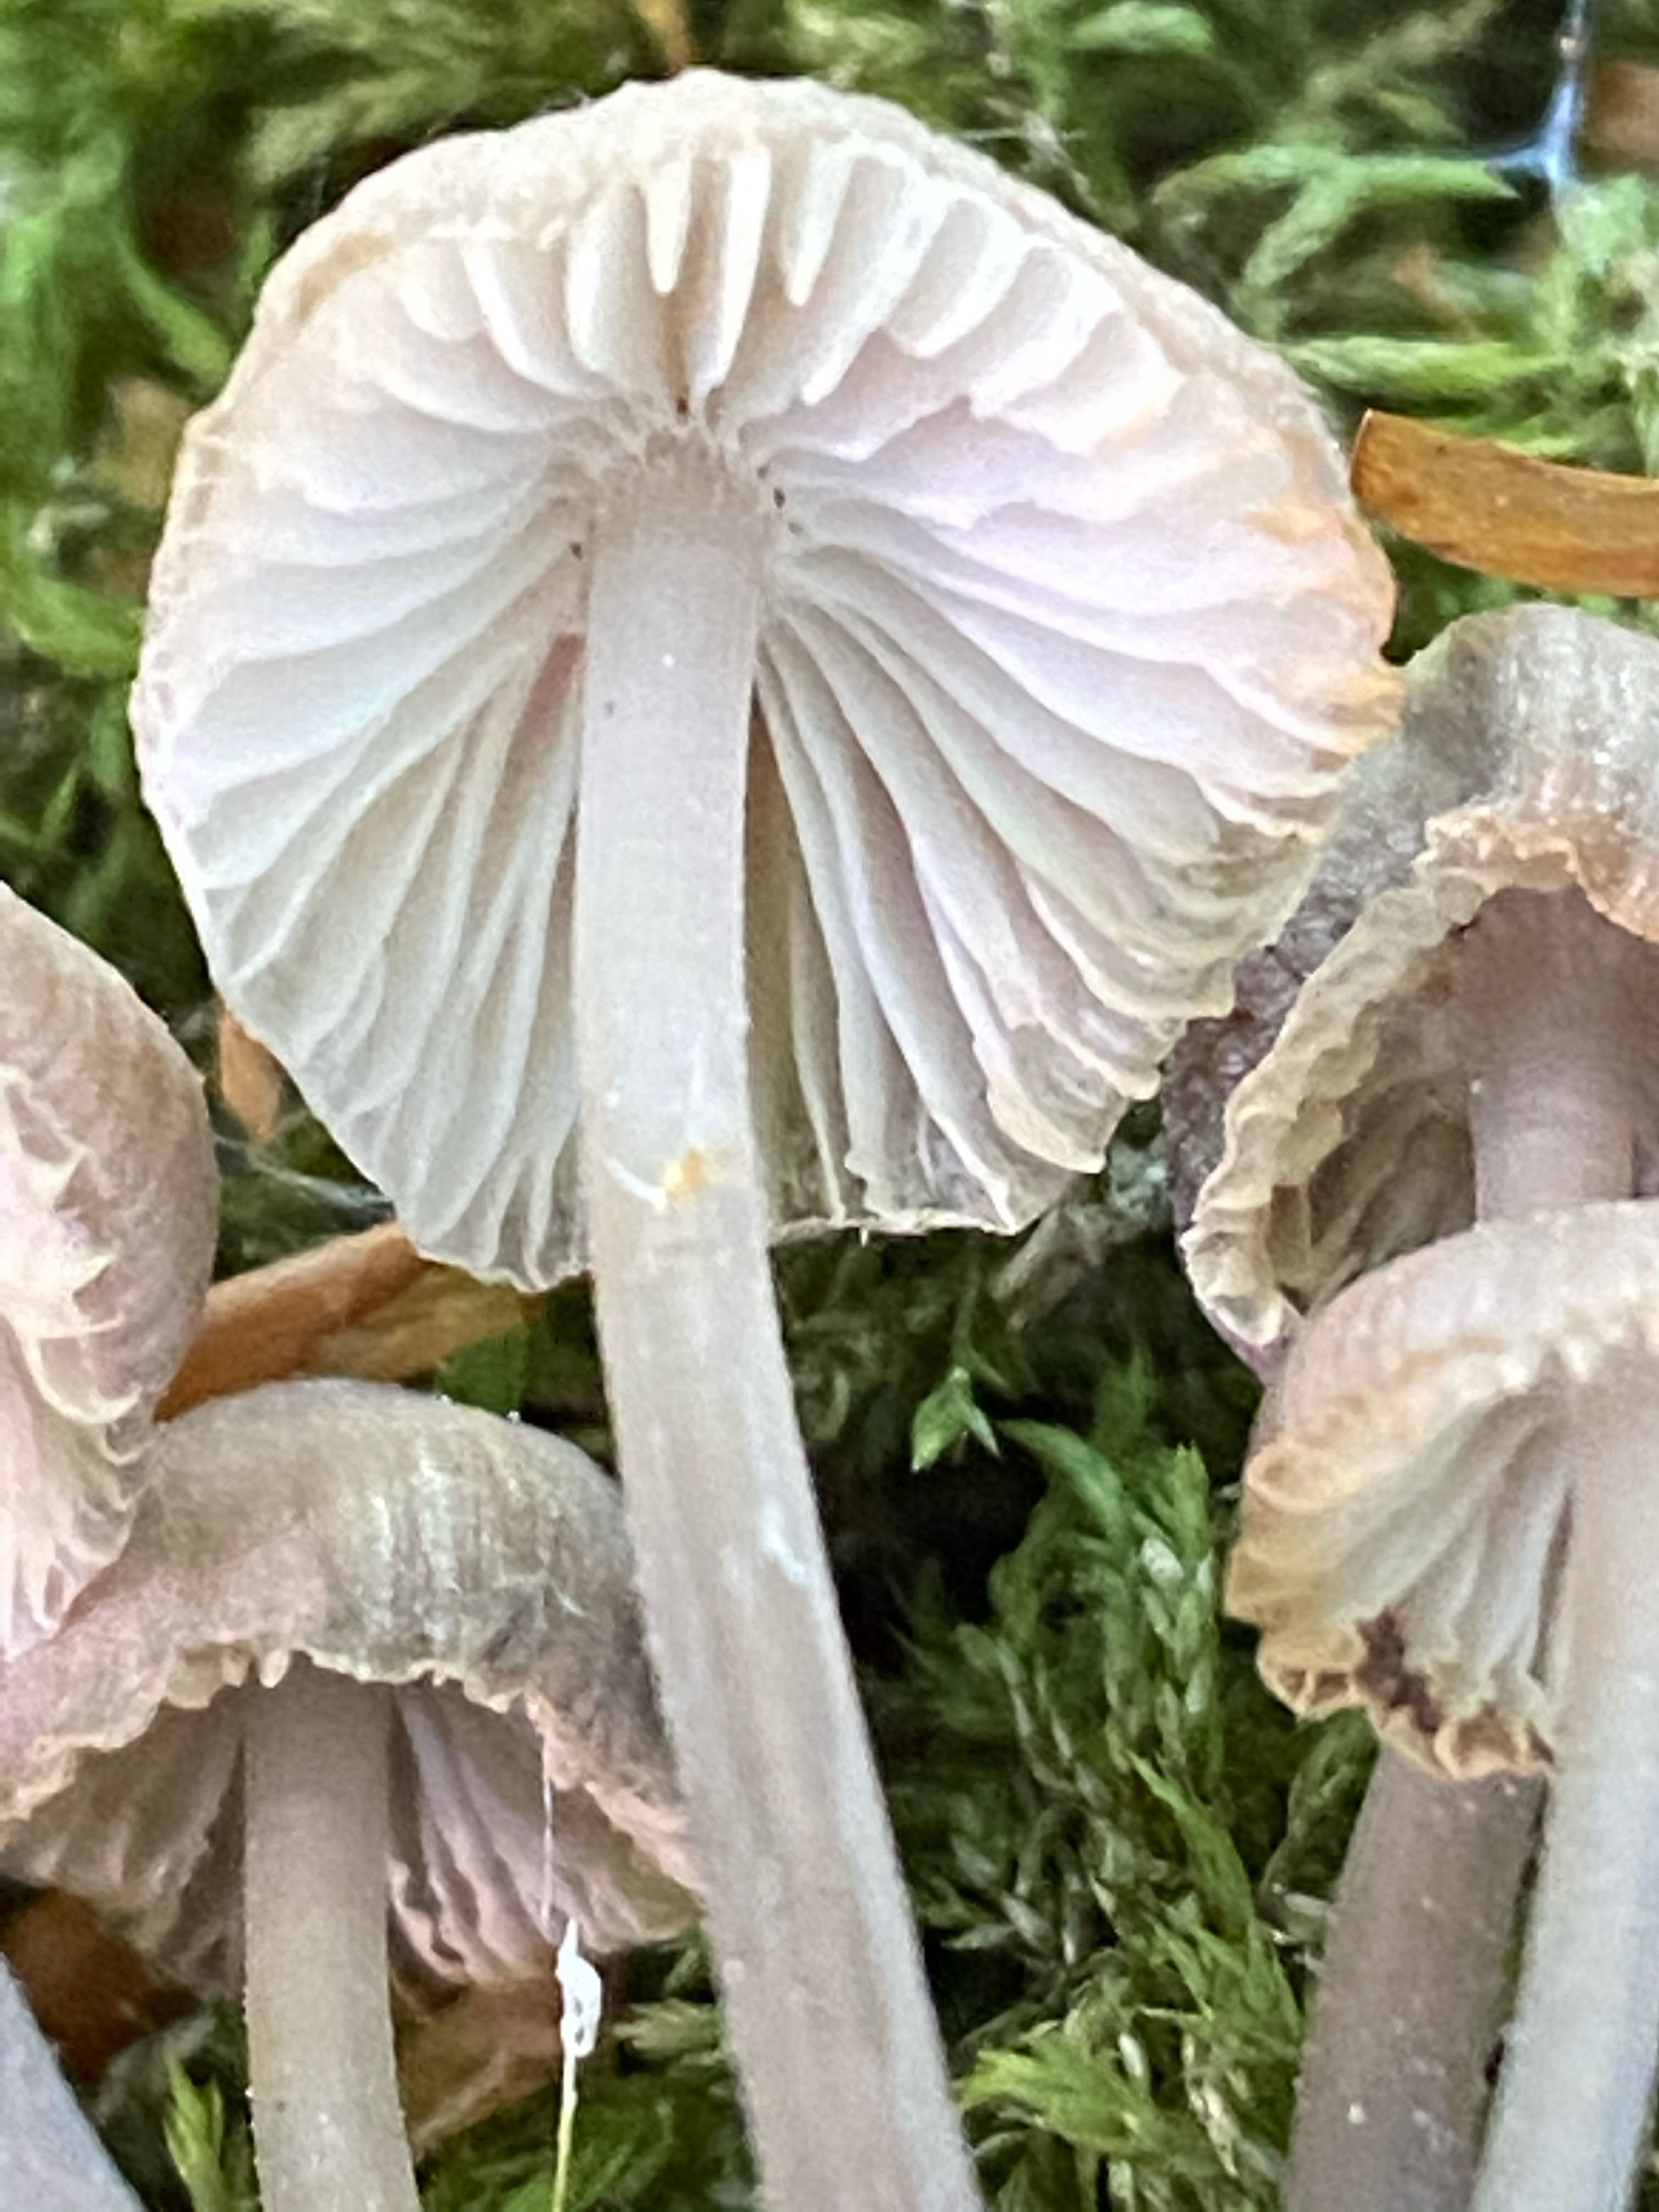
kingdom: Fungi
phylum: Basidiomycota
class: Agaricomycetes
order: Agaricales
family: Mycenaceae
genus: Mycena
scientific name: Mycena abramsii
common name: sommer-huesvamp
